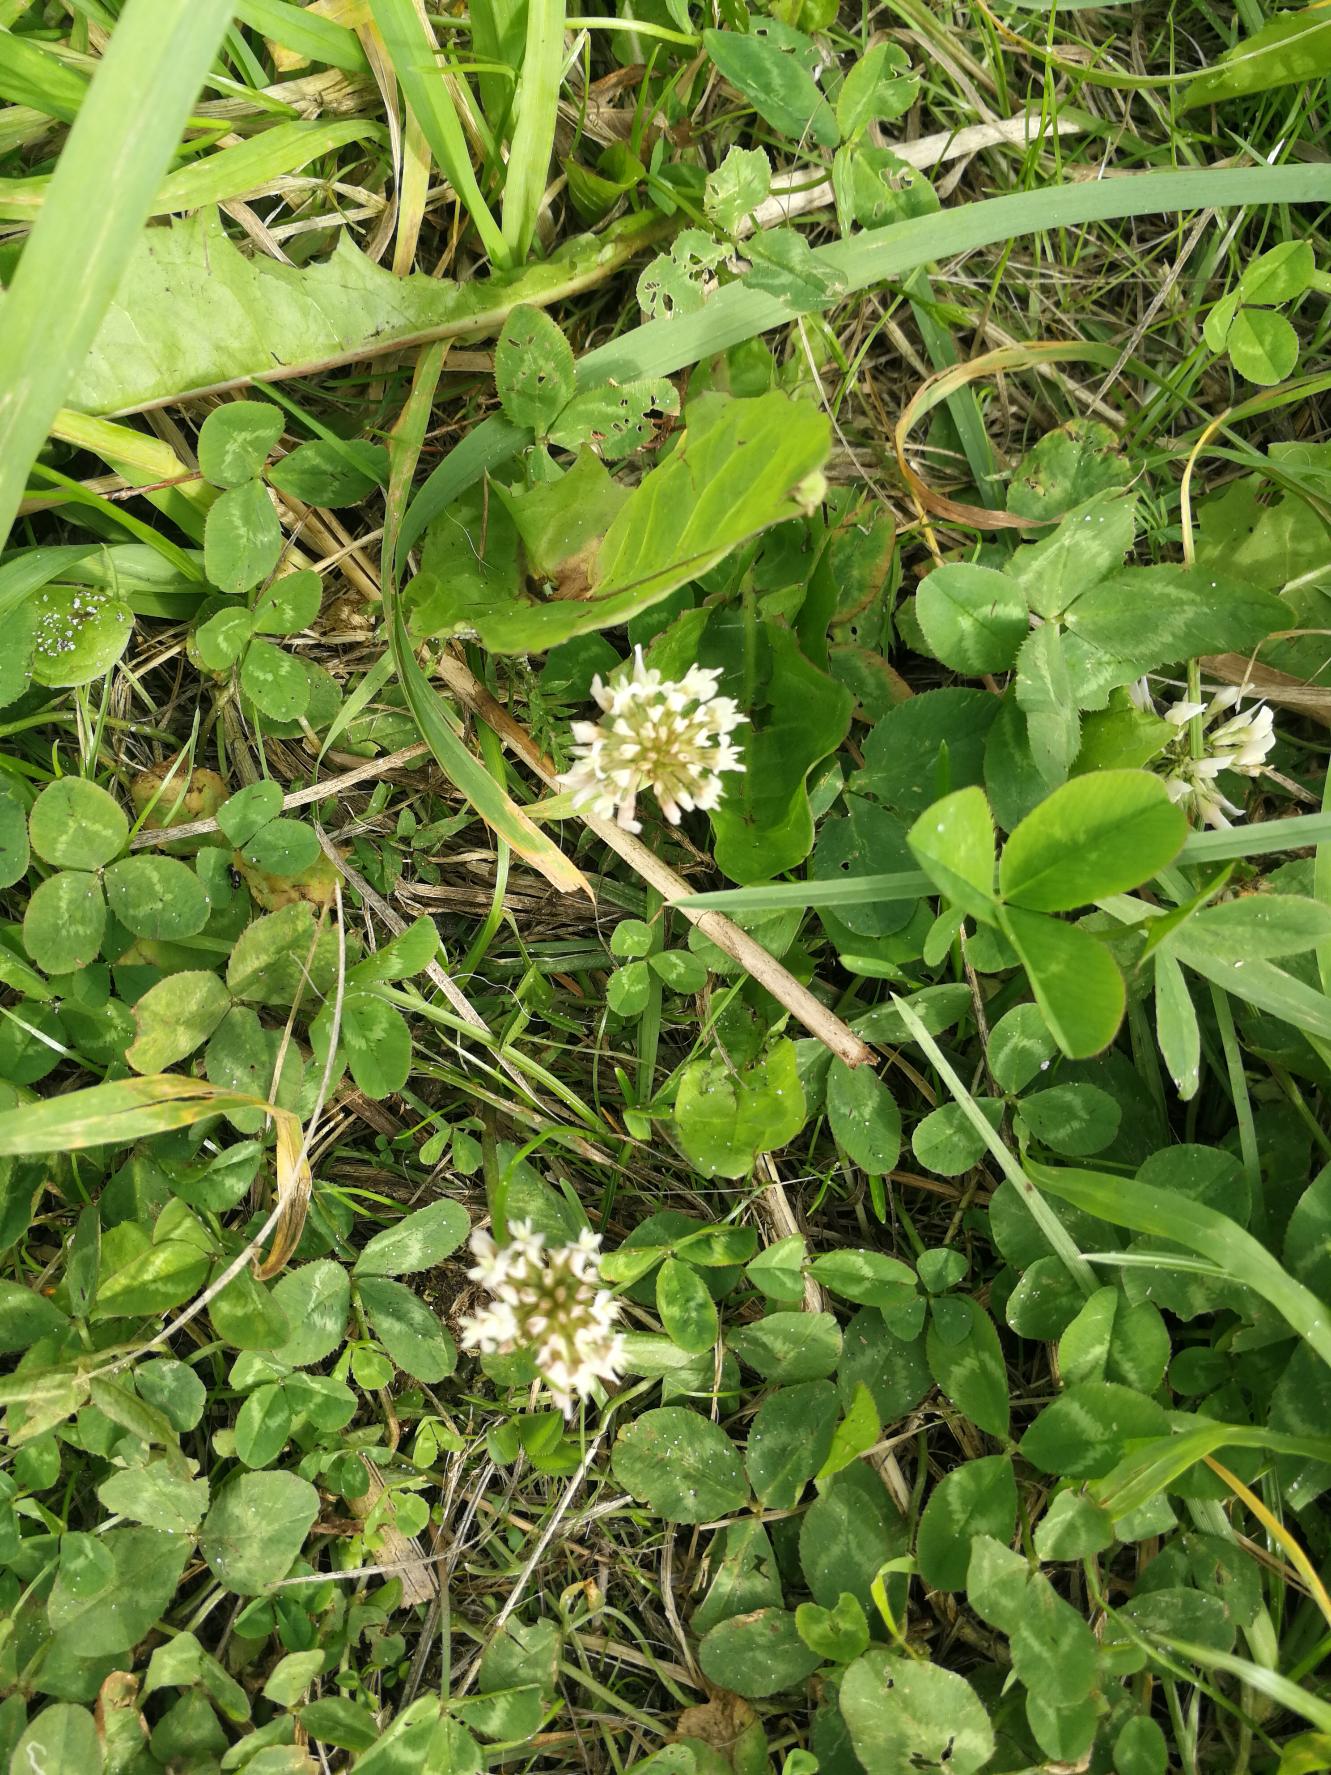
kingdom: Plantae
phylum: Tracheophyta
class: Magnoliopsida
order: Fabales
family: Fabaceae
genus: Trifolium
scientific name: Trifolium repens
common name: Hvid-kløver
